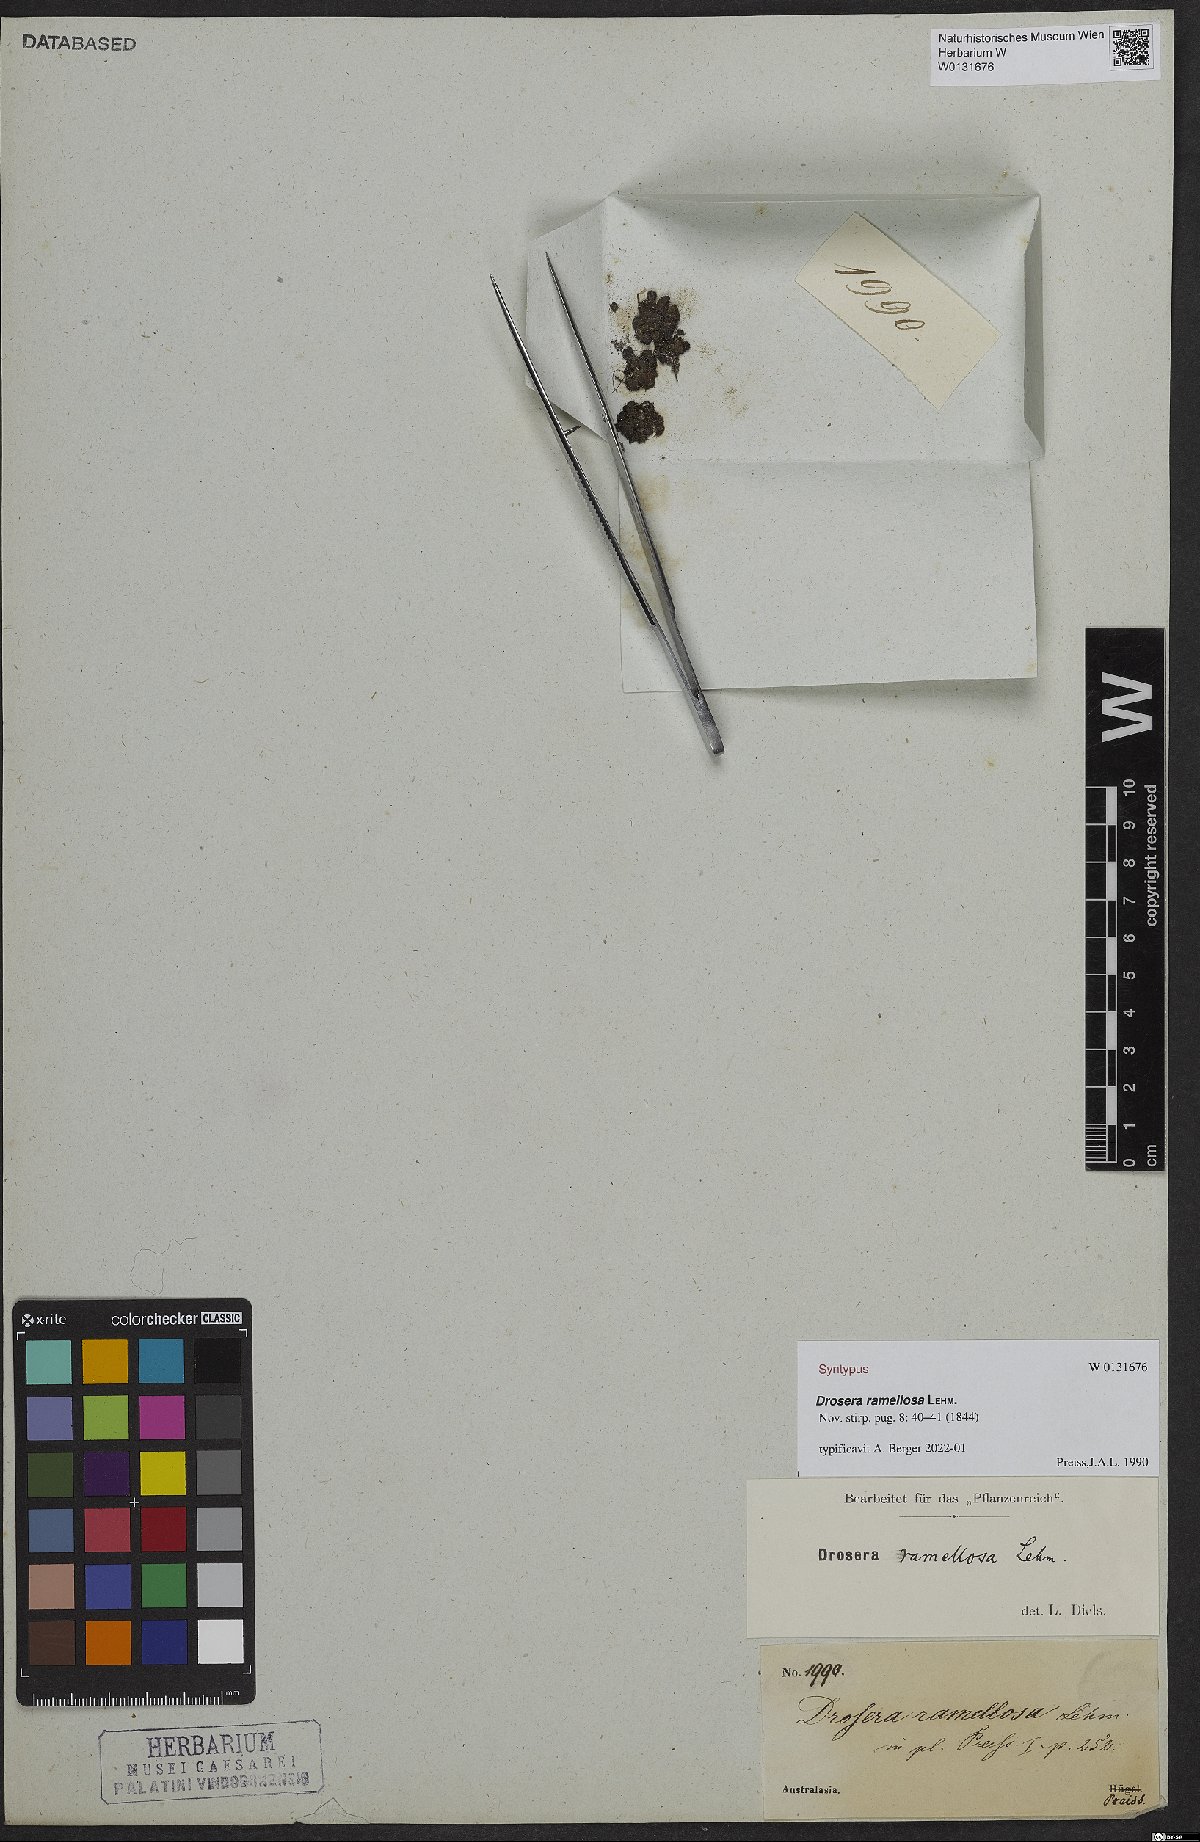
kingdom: Plantae
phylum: Tracheophyta
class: Magnoliopsida
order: Caryophyllales
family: Droseraceae
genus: Drosera
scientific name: Drosera ramellosa
